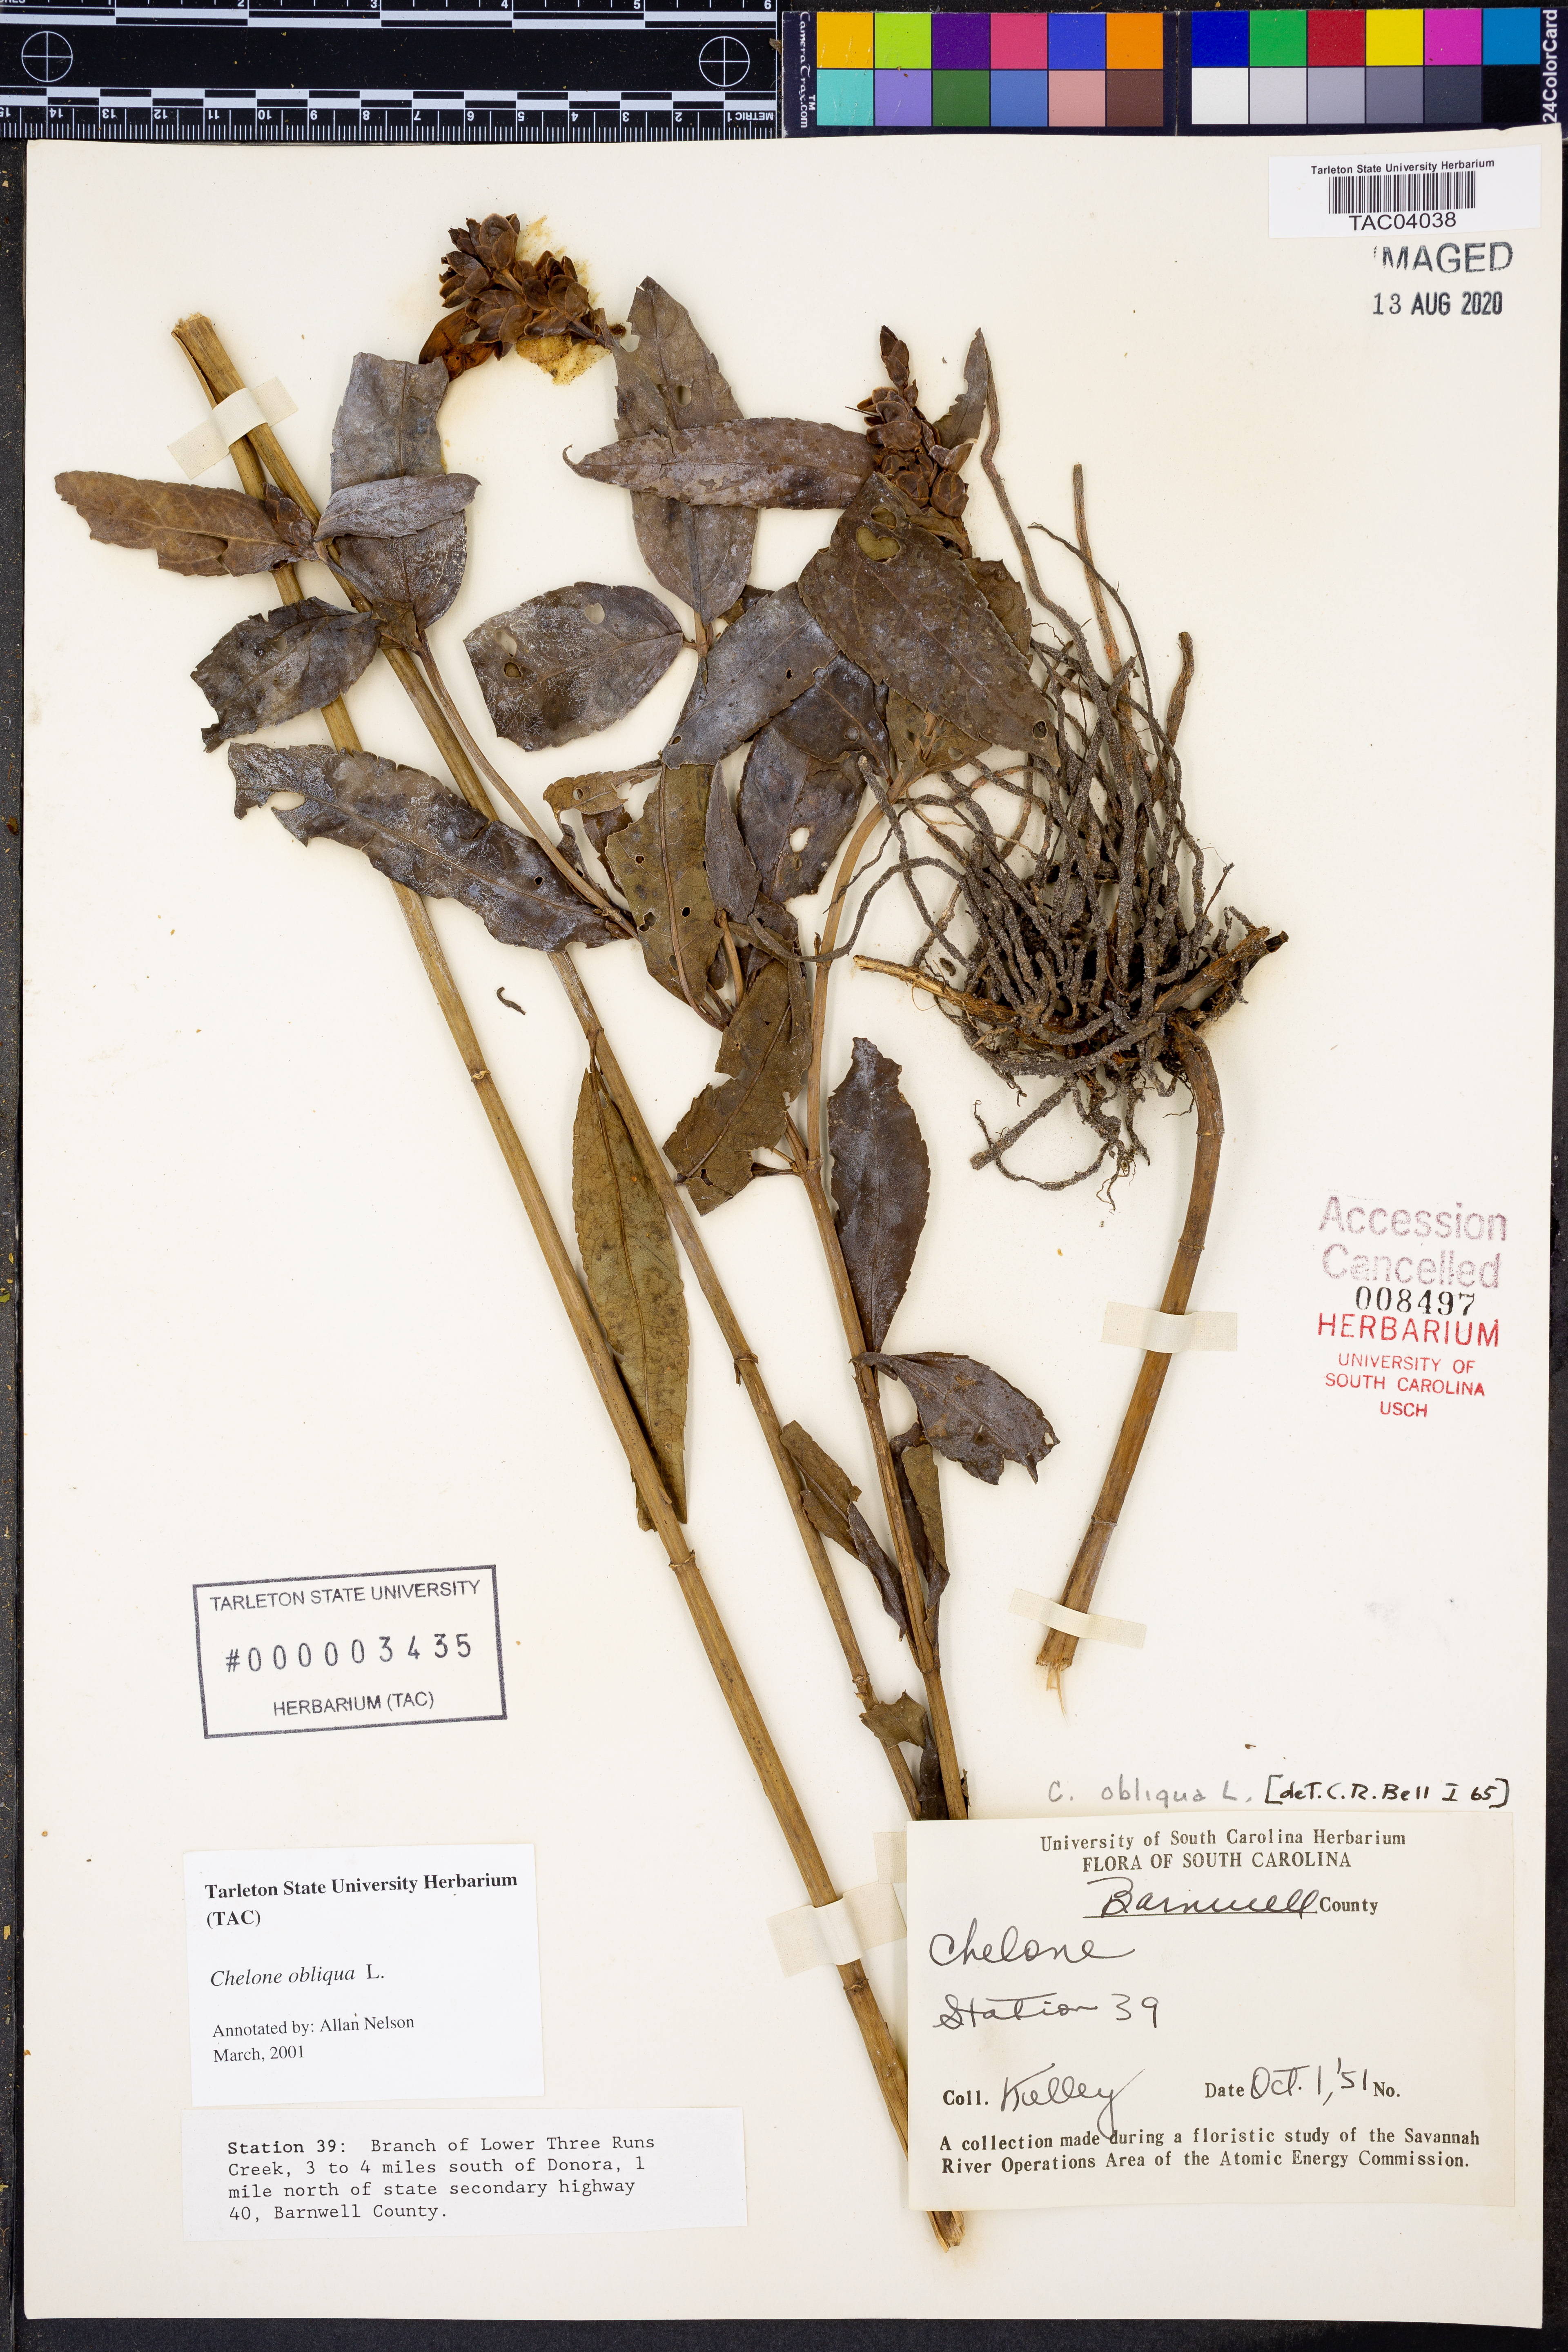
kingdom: Plantae
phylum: Tracheophyta
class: Magnoliopsida
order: Lamiales
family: Plantaginaceae
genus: Chelone
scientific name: Chelone obliqua
